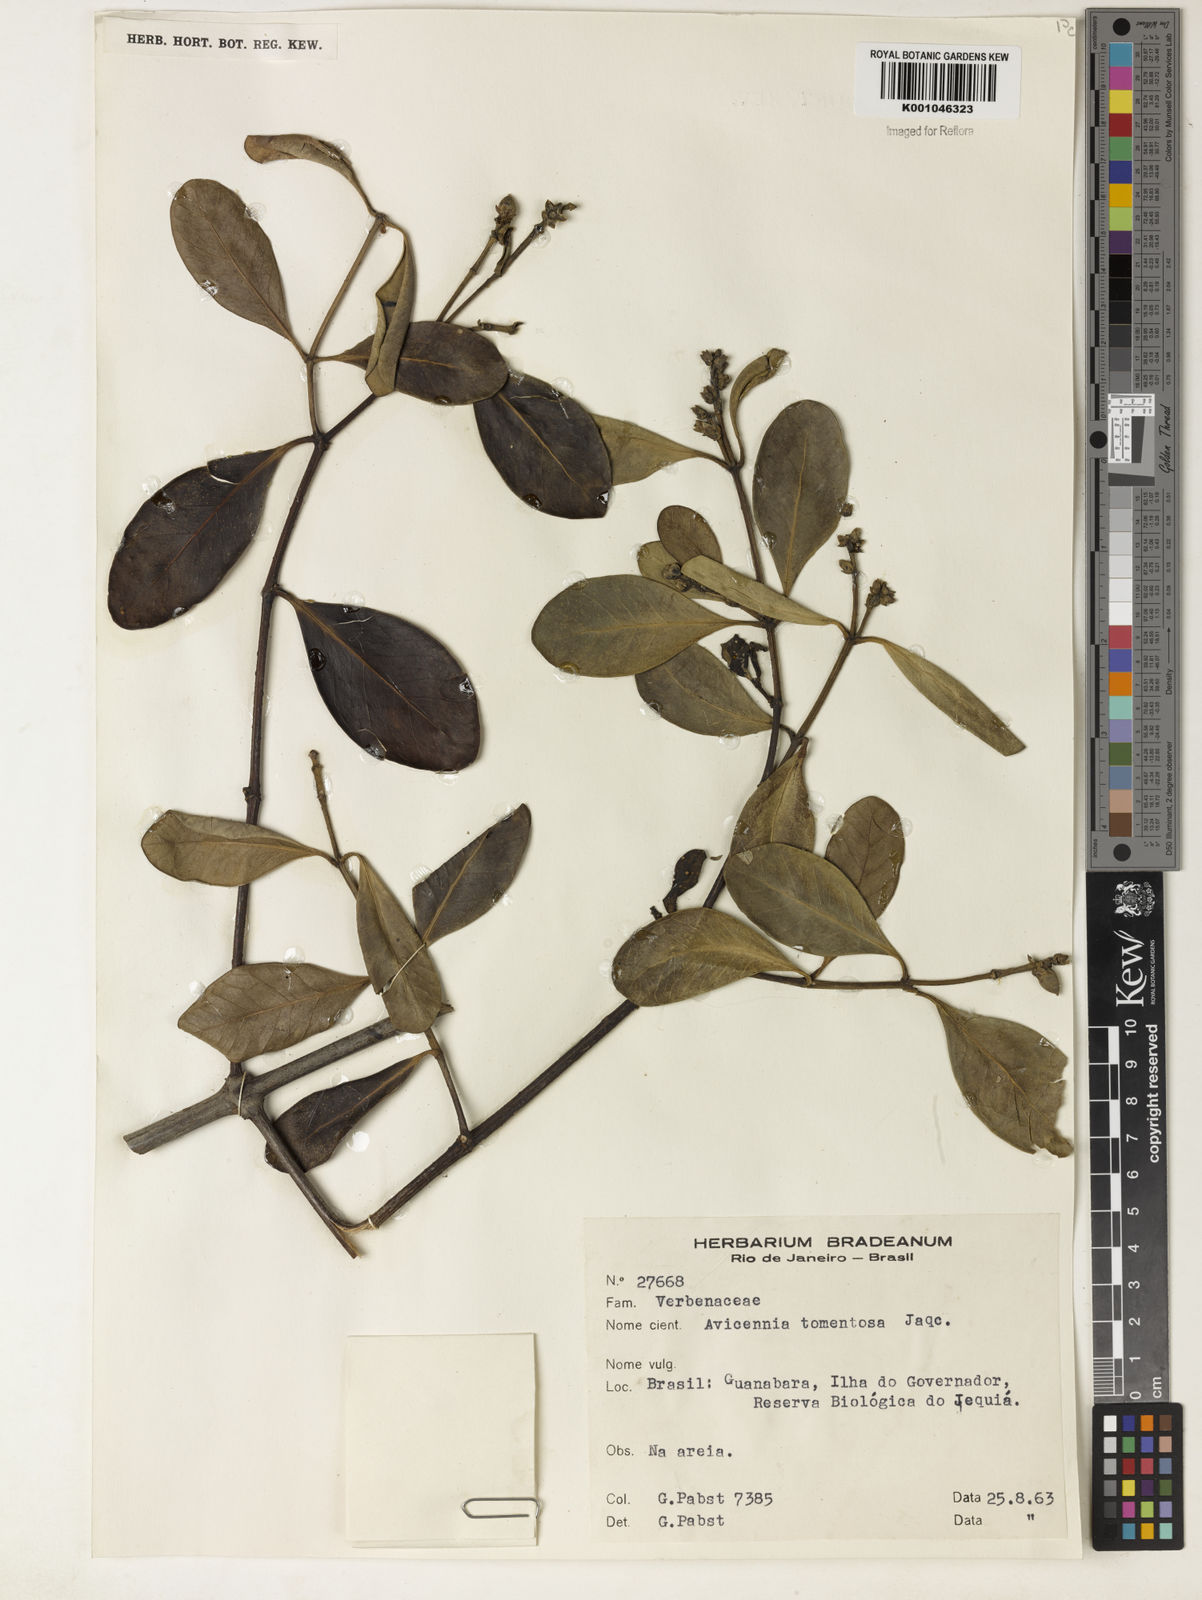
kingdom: Plantae
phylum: Tracheophyta
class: Magnoliopsida
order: Lamiales
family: Acanthaceae
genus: Avicennia
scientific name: Avicennia germinans
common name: Black mangrove
